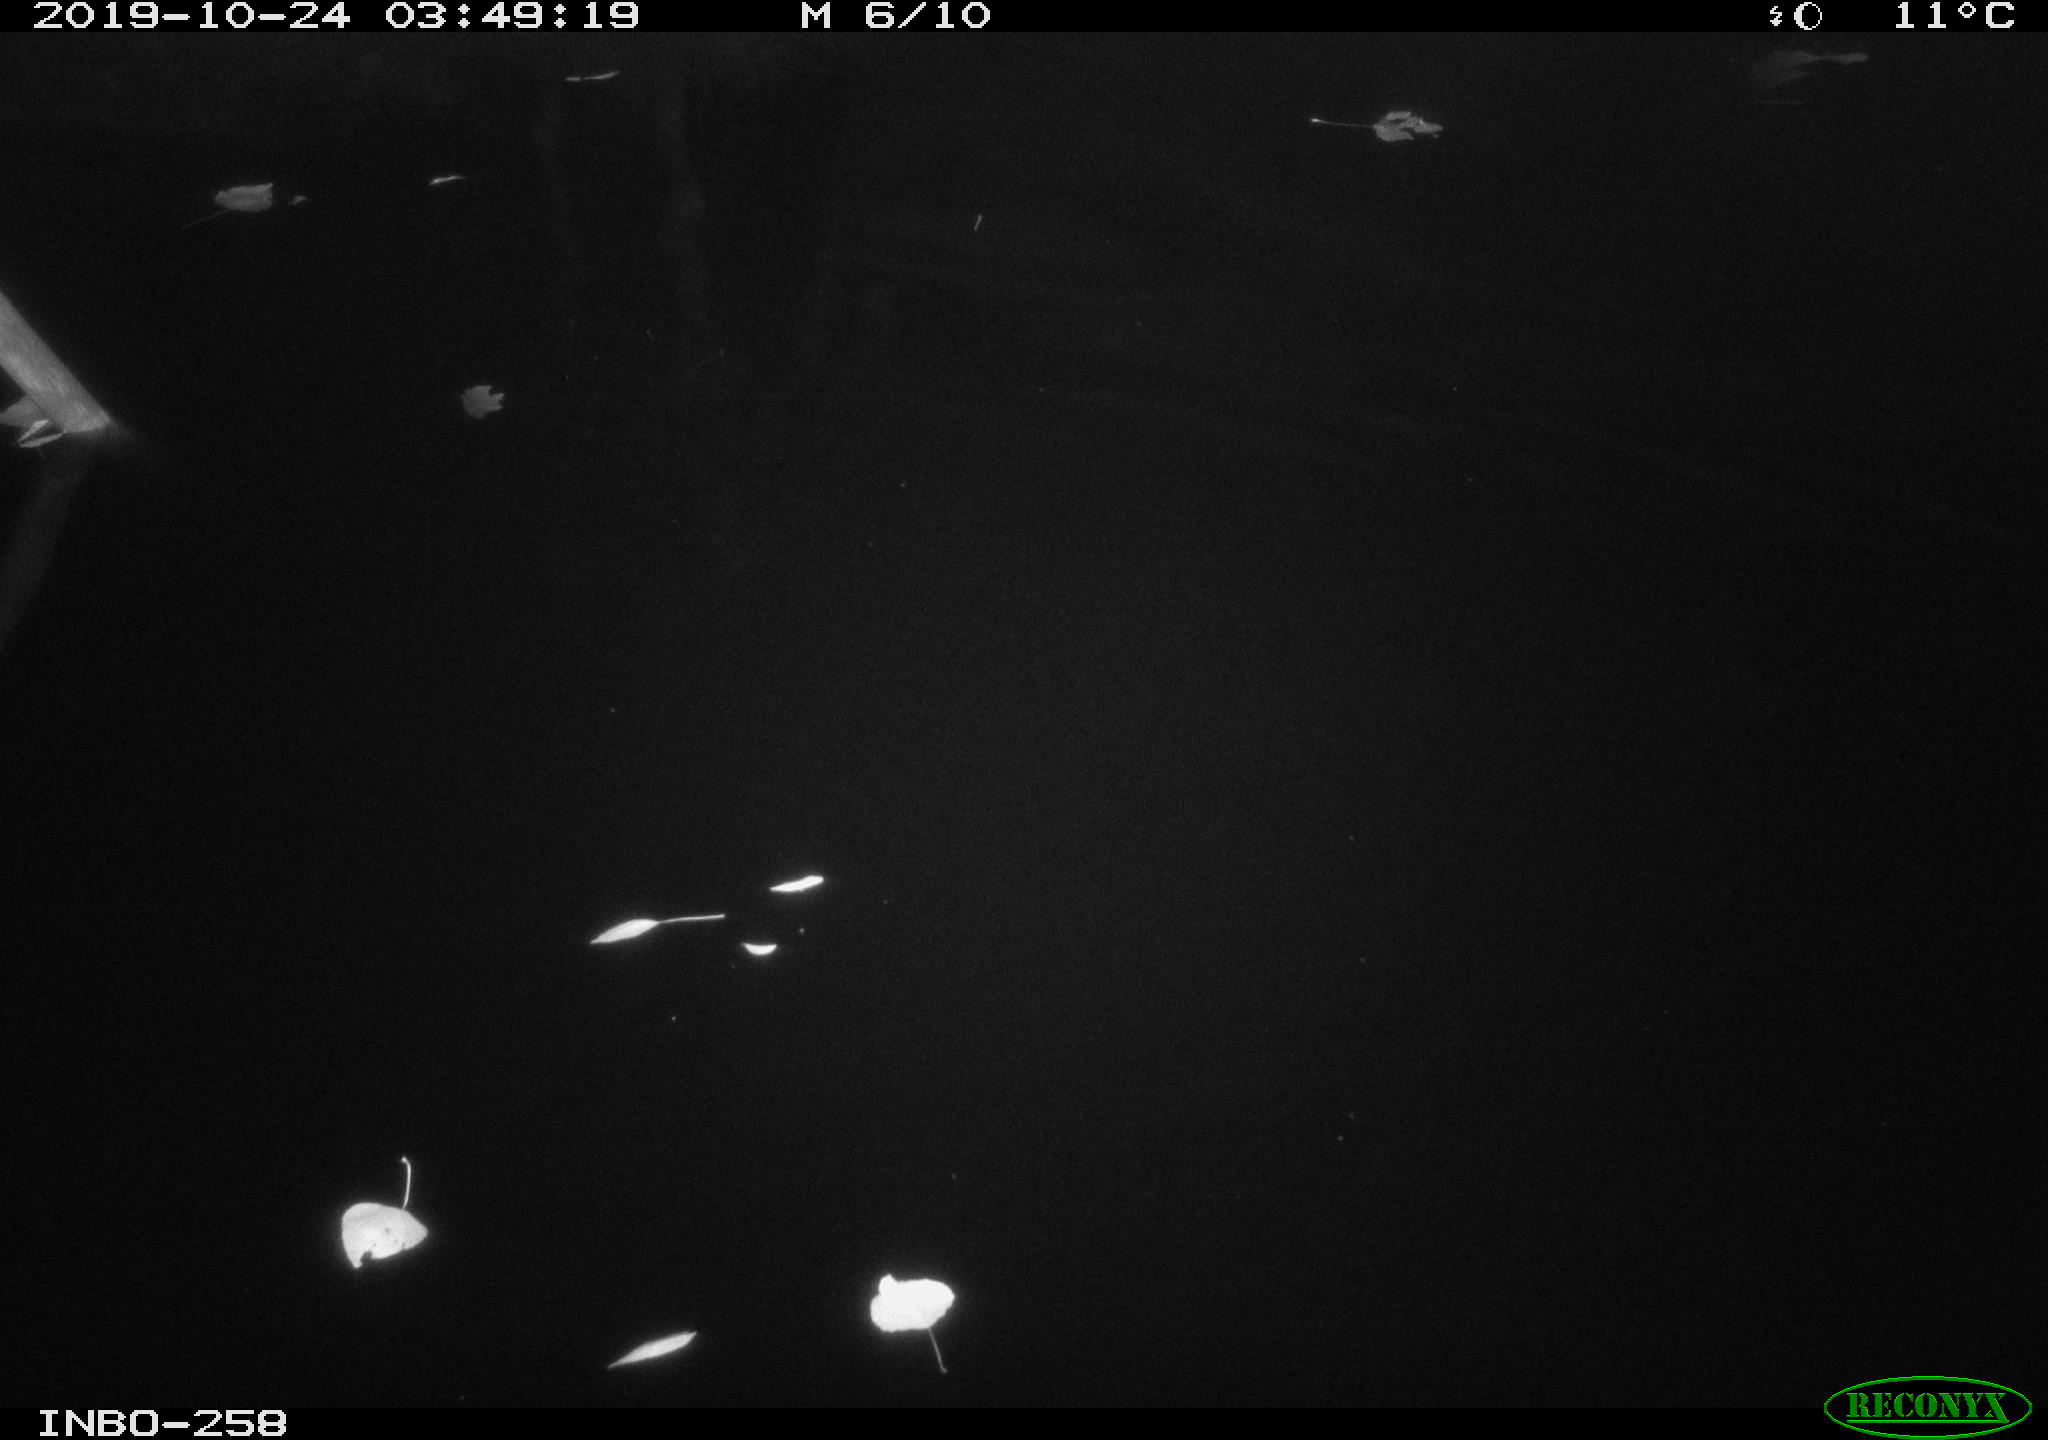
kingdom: Animalia
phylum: Chordata
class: Aves
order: Anseriformes
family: Anatidae
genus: Anas
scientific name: Anas platyrhynchos
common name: Mallard
